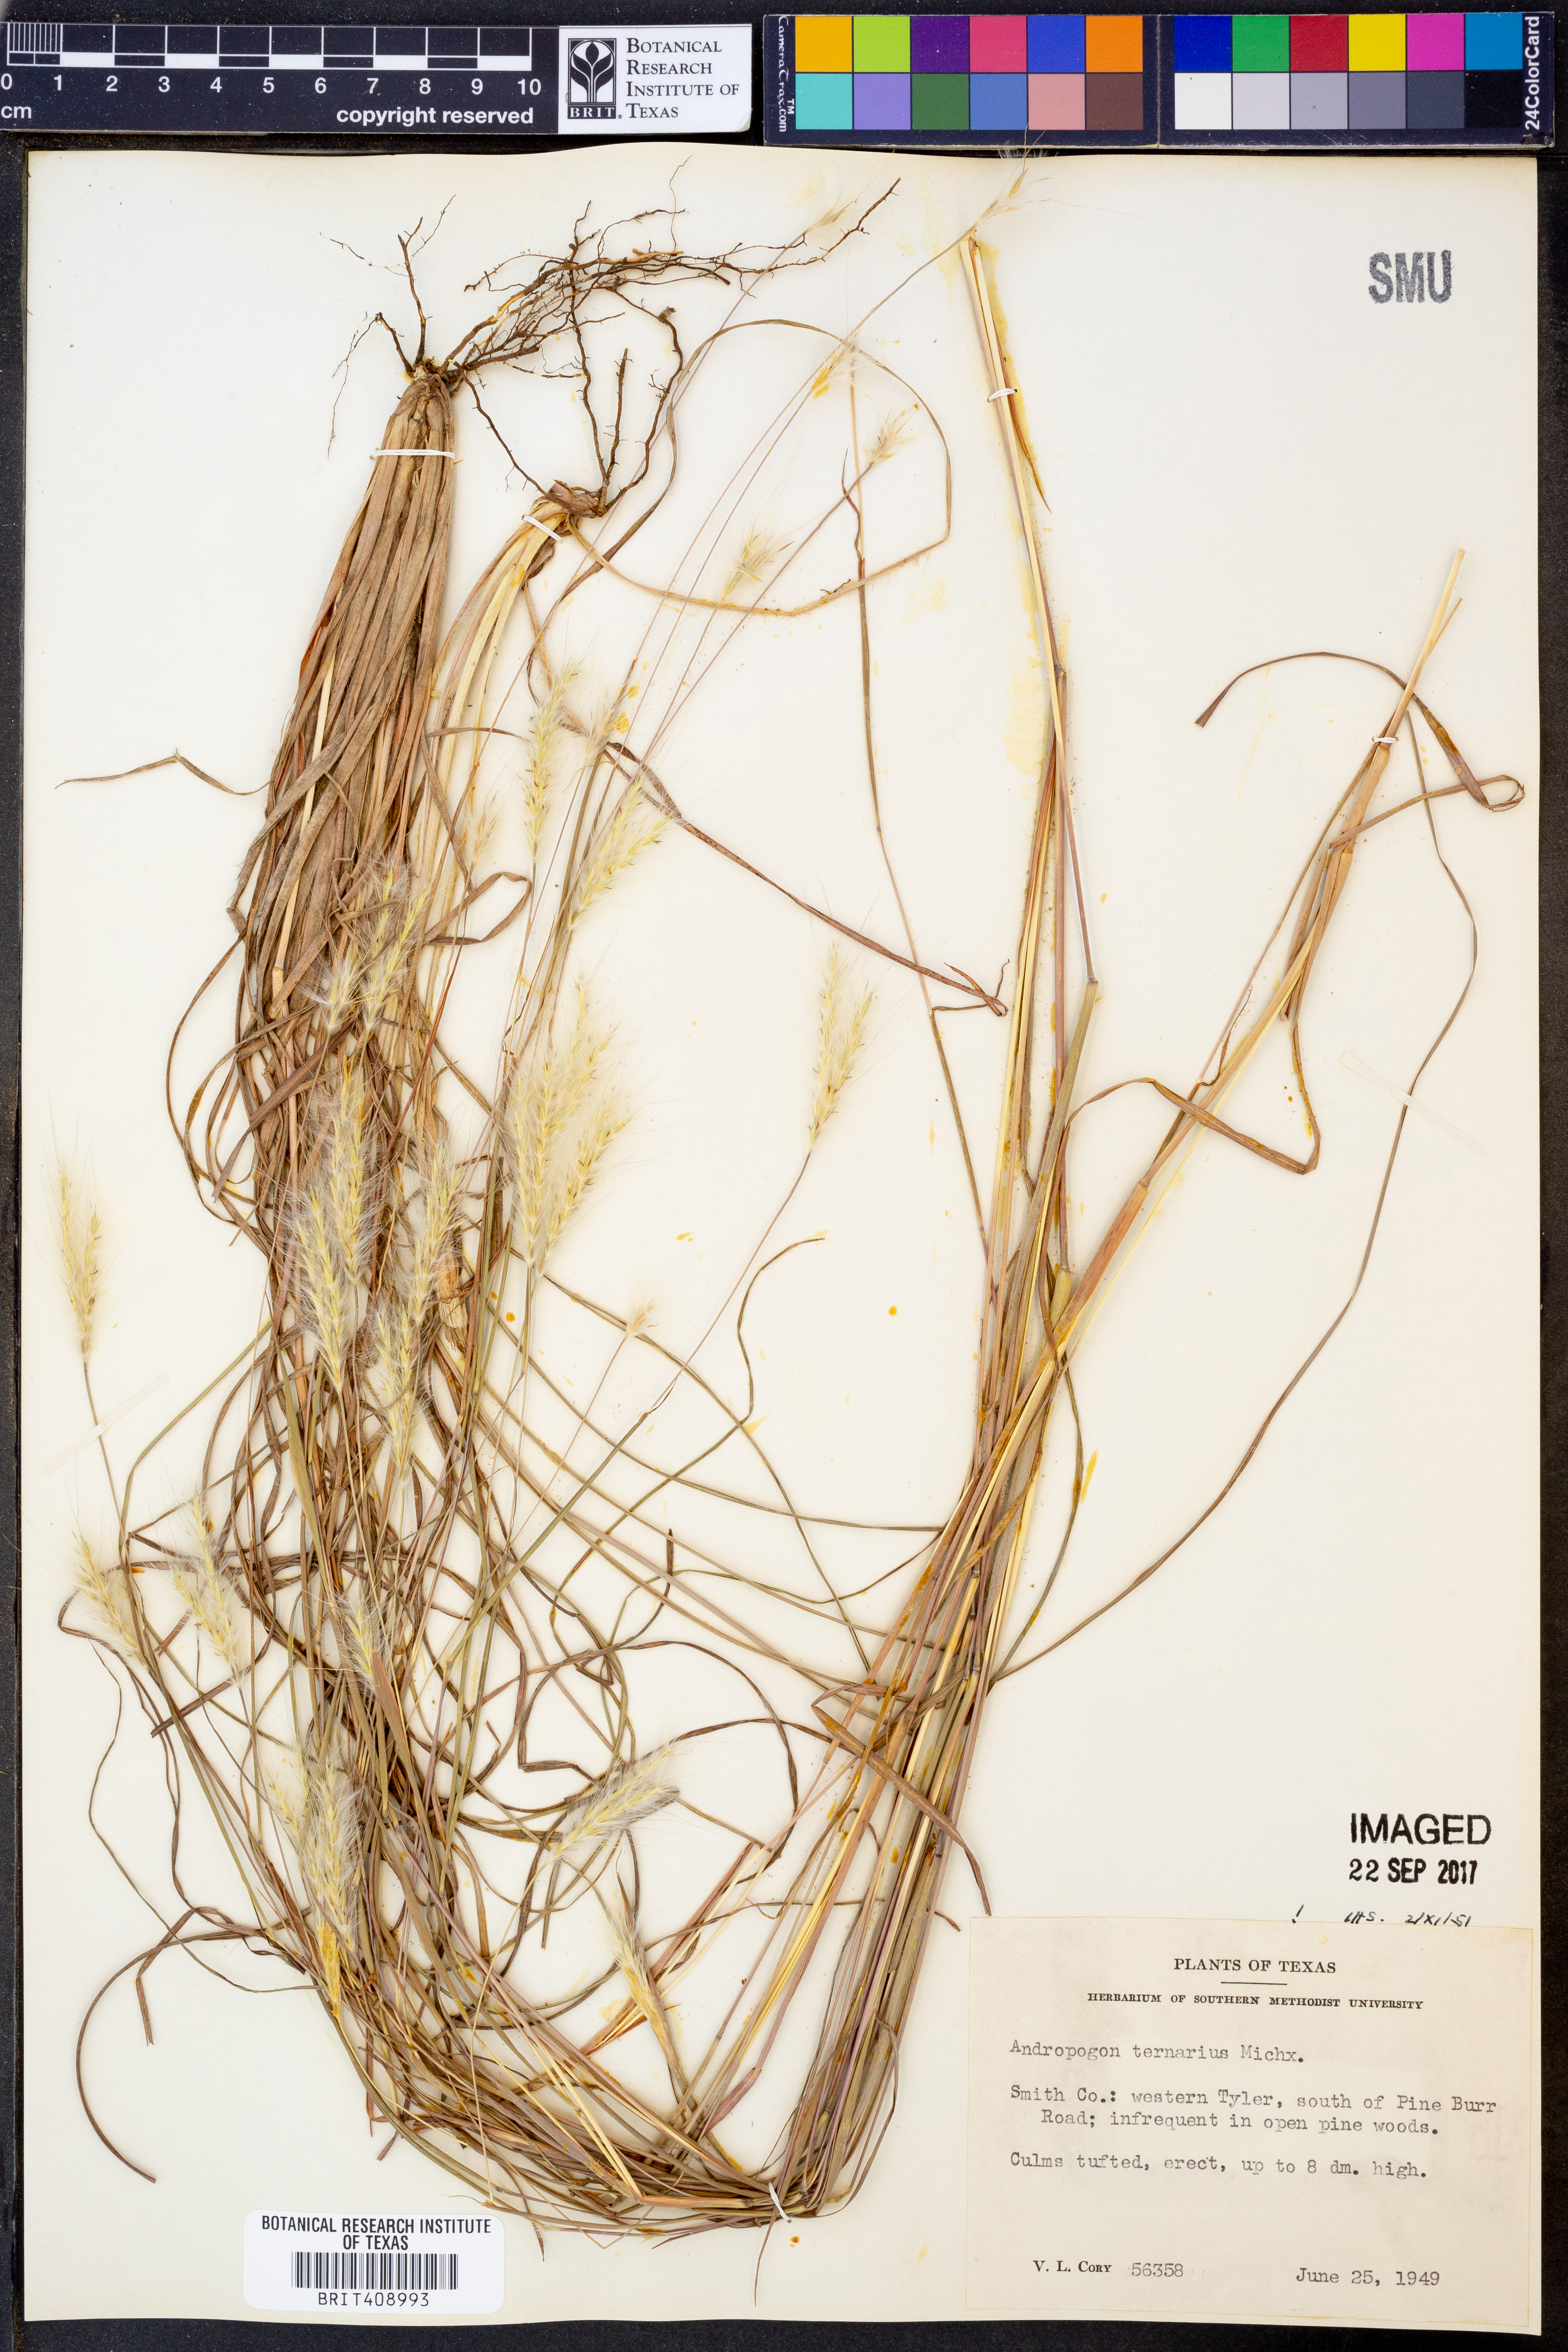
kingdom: Plantae
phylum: Tracheophyta
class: Liliopsida
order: Poales
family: Poaceae
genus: Andropogon
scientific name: Andropogon ternarius
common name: Split bluestem
